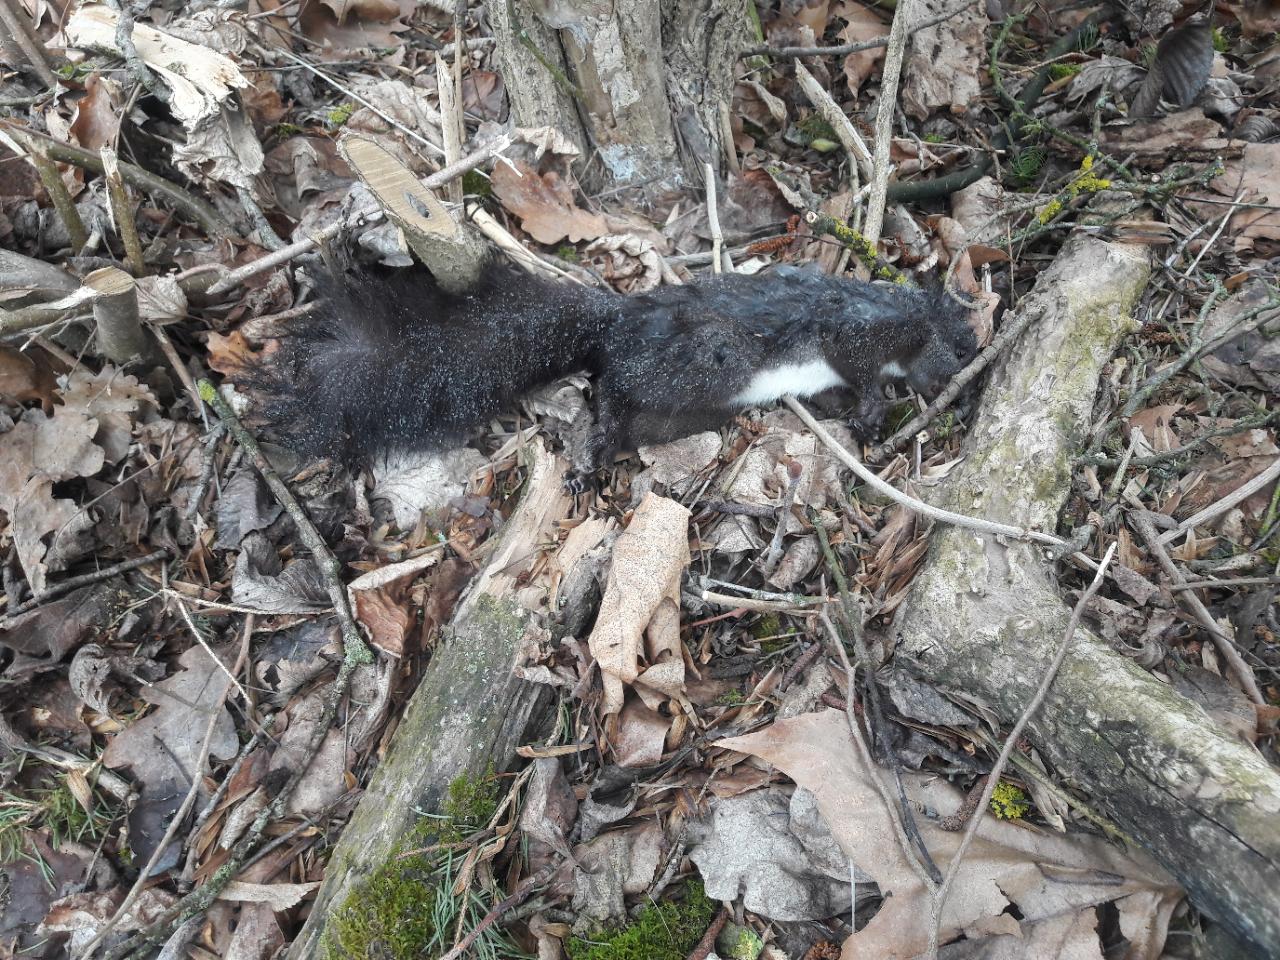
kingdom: Animalia
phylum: Chordata
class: Mammalia
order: Rodentia
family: Sciuridae
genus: Sciurus
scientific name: Sciurus vulgaris
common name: Eurasian red squirrel
